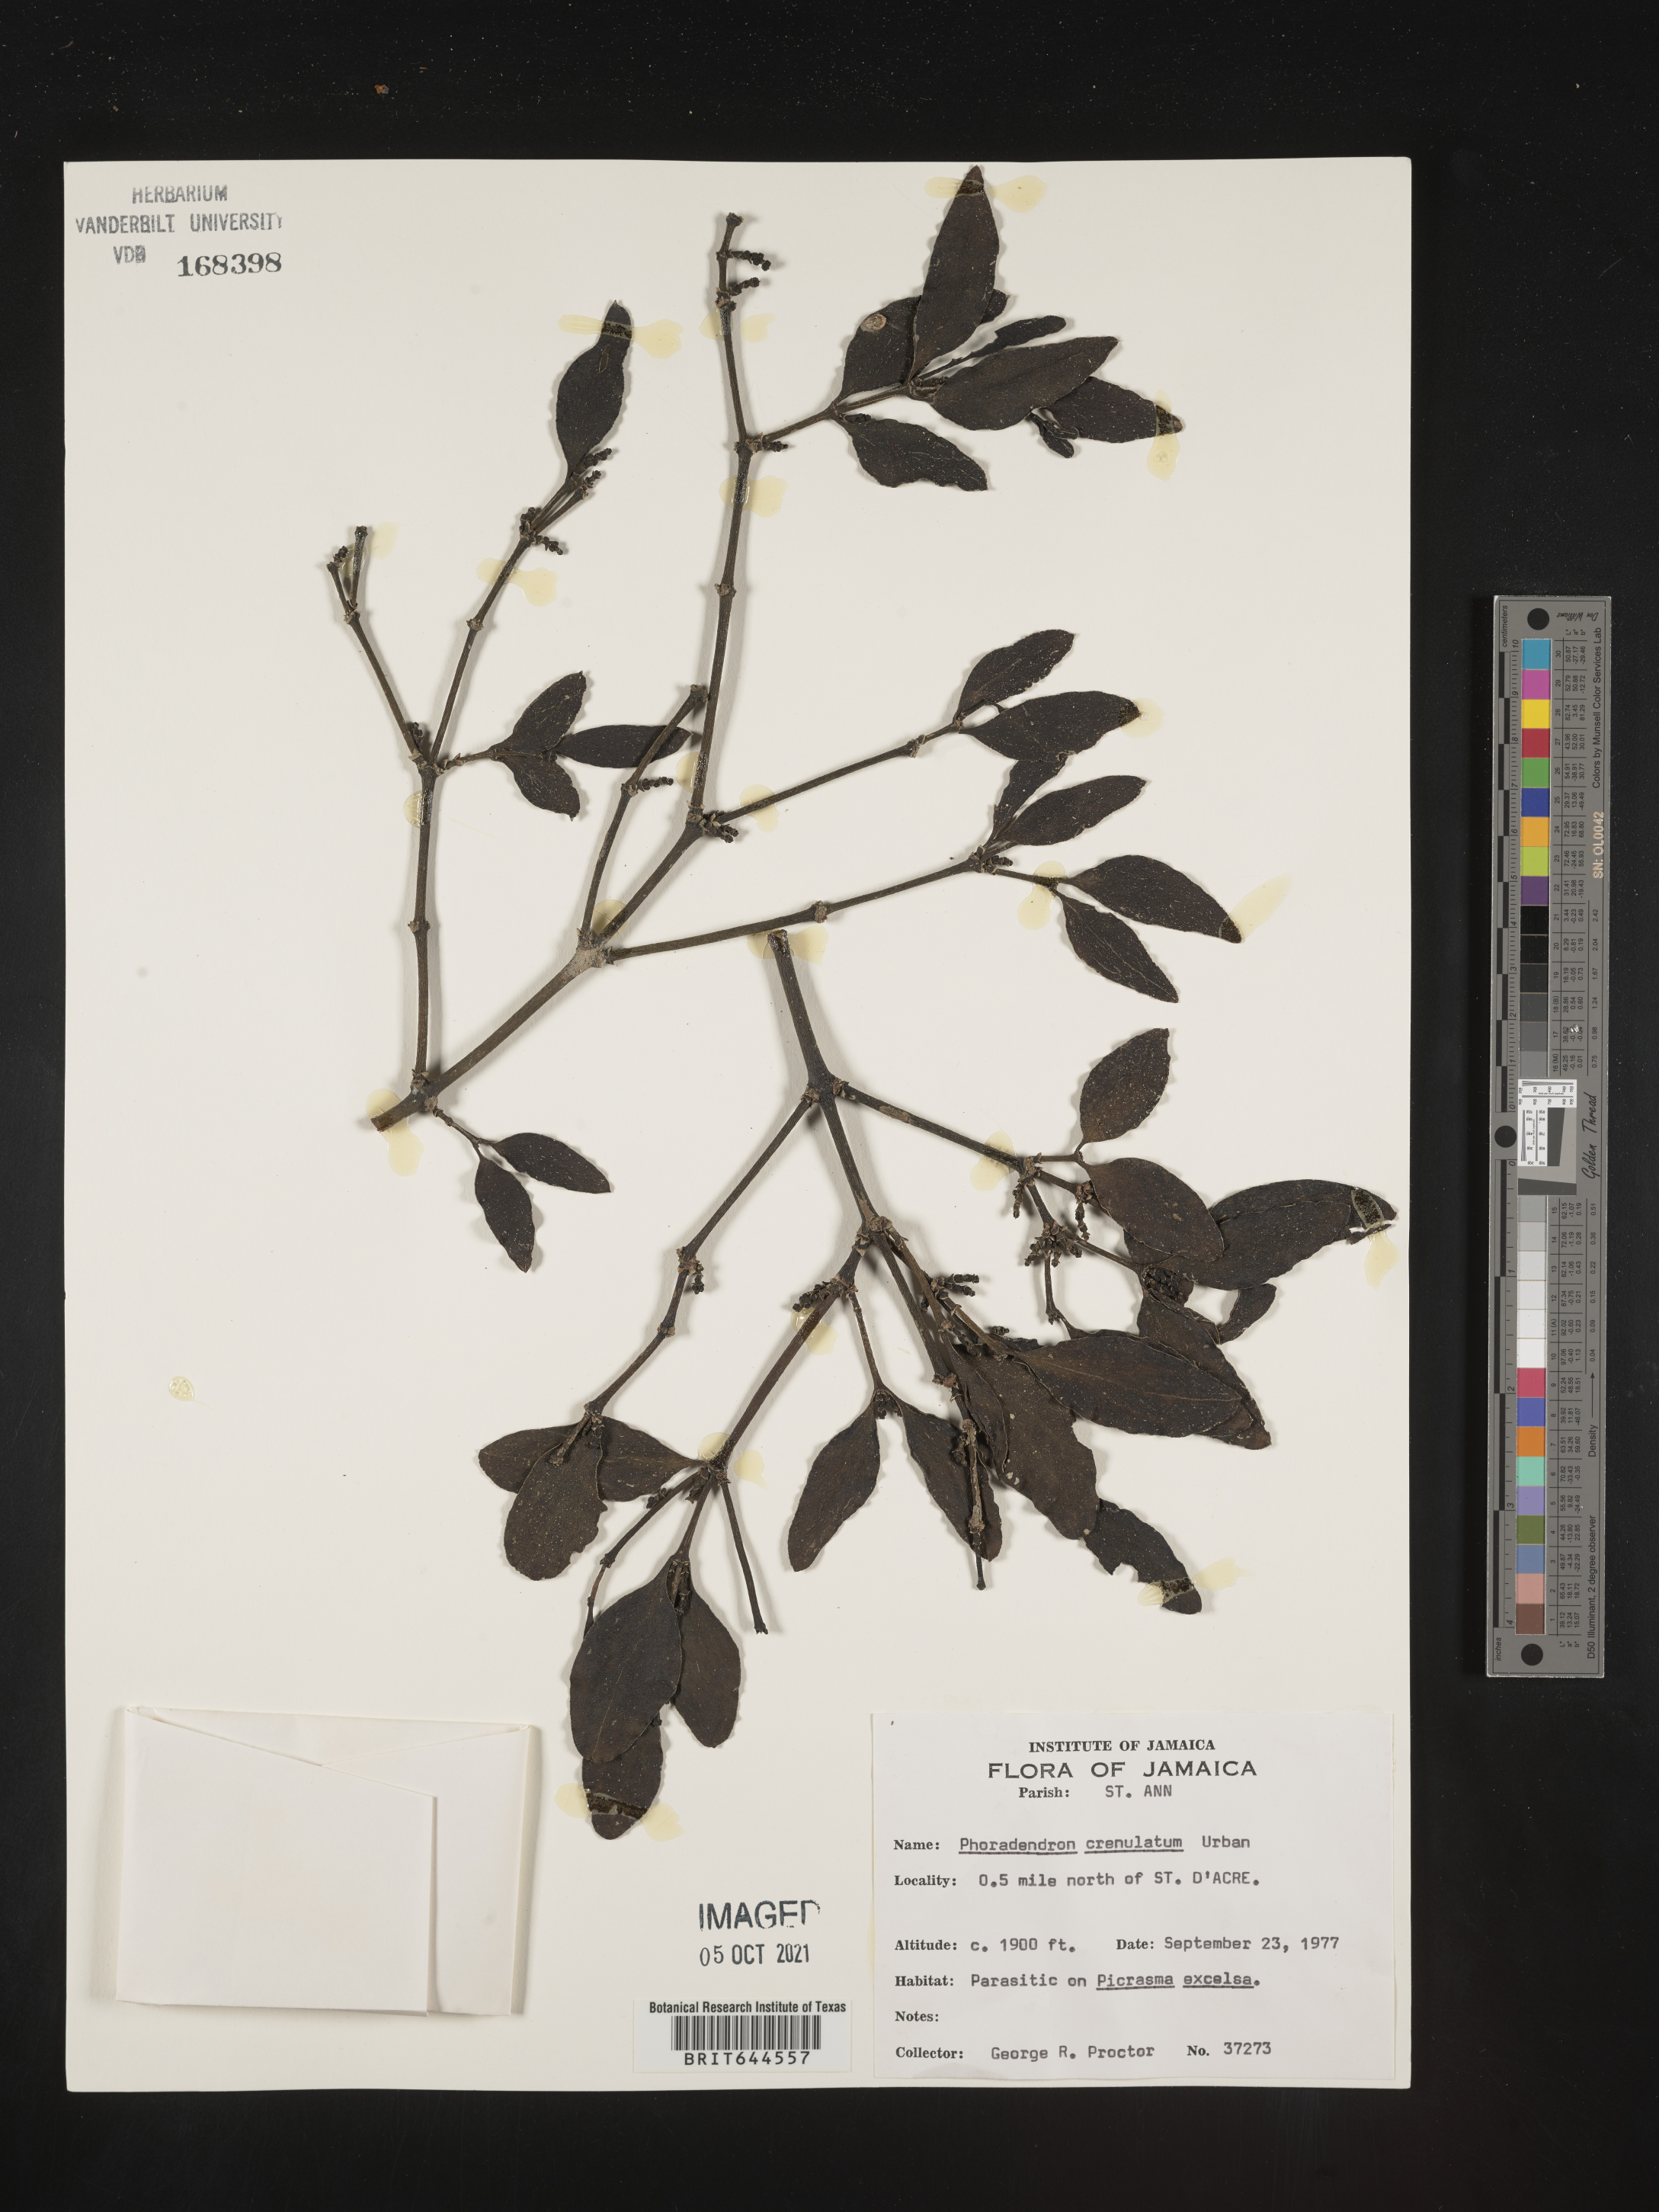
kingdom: Plantae
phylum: Tracheophyta
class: Magnoliopsida
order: Santalales
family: Viscaceae
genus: Phoradendron
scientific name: Phoradendron
